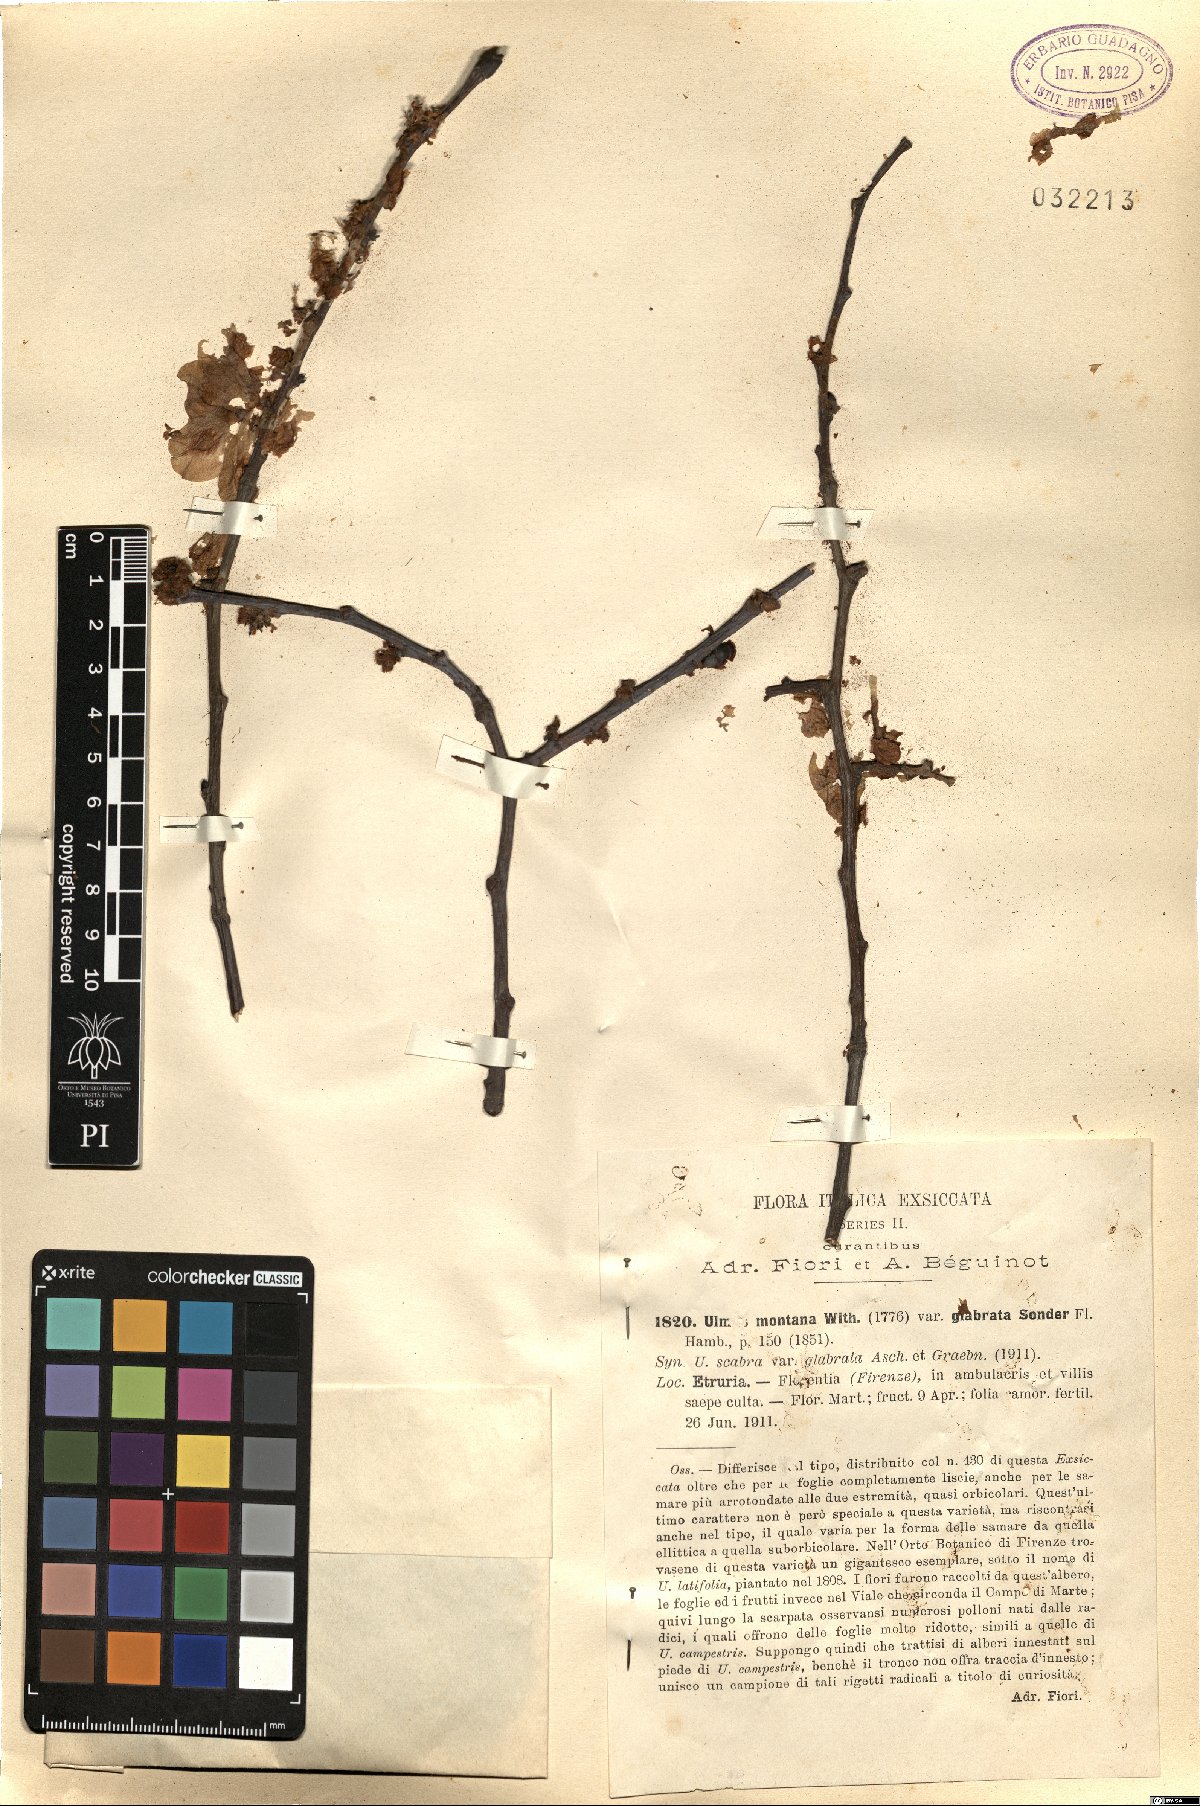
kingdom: Plantae
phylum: Tracheophyta
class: Magnoliopsida
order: Rosales
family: Ulmaceae
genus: Ulmus
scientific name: Ulmus glabra
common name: Wych elm
